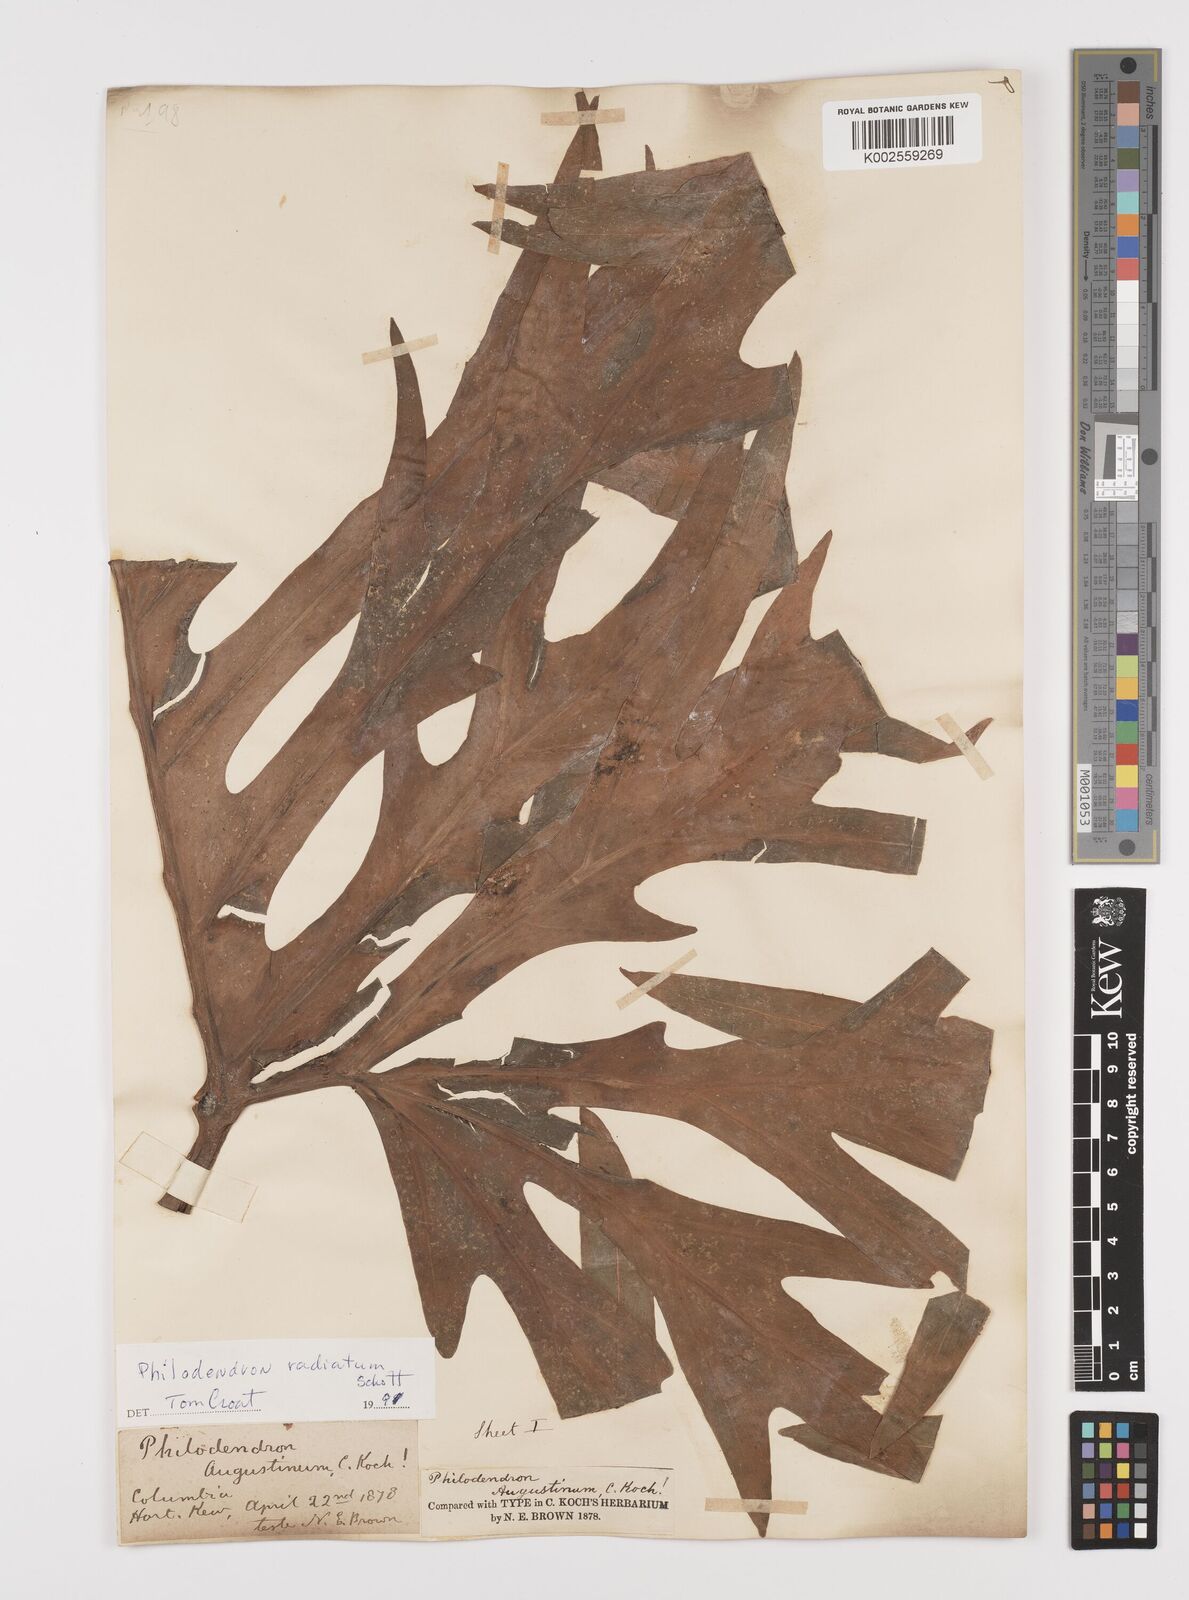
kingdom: Plantae
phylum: Tracheophyta
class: Liliopsida
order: Alismatales
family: Araceae
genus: Philodendron
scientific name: Philodendron radiatum
